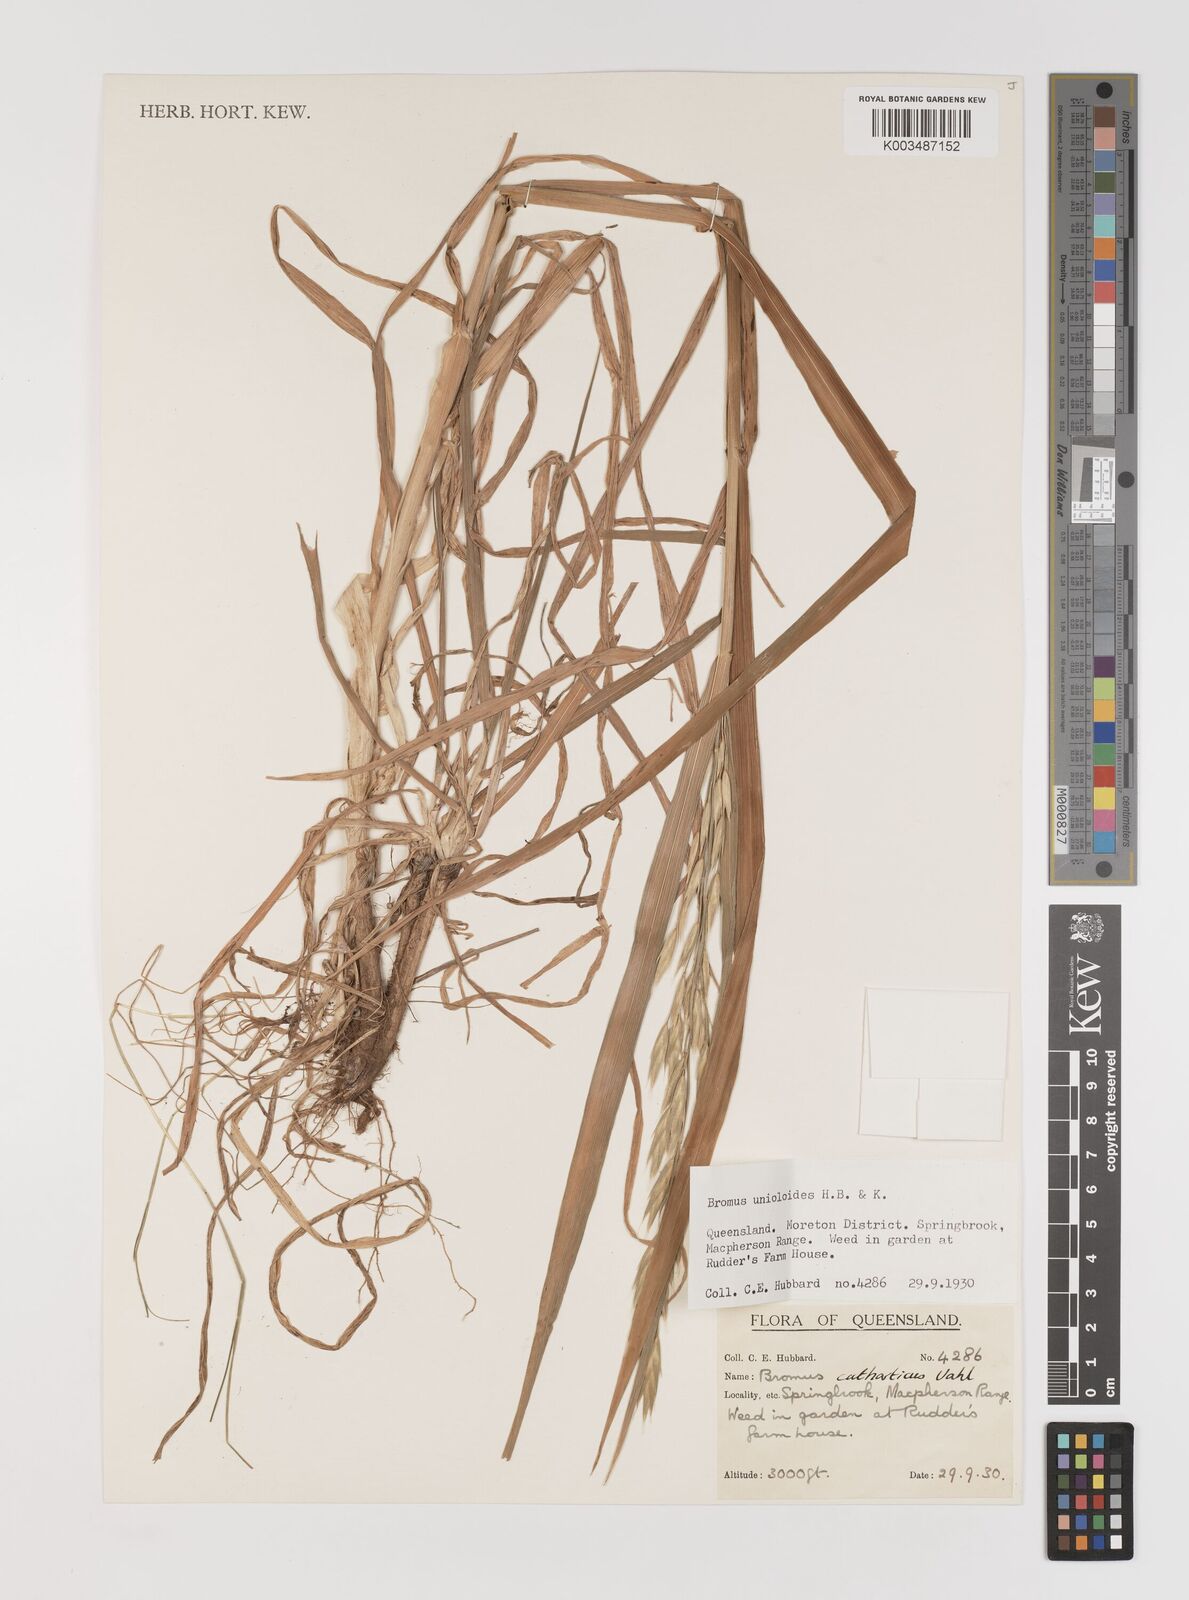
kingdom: Plantae
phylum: Tracheophyta
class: Liliopsida
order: Poales
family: Poaceae
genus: Bromus
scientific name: Bromus catharticus
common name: Rescuegrass
